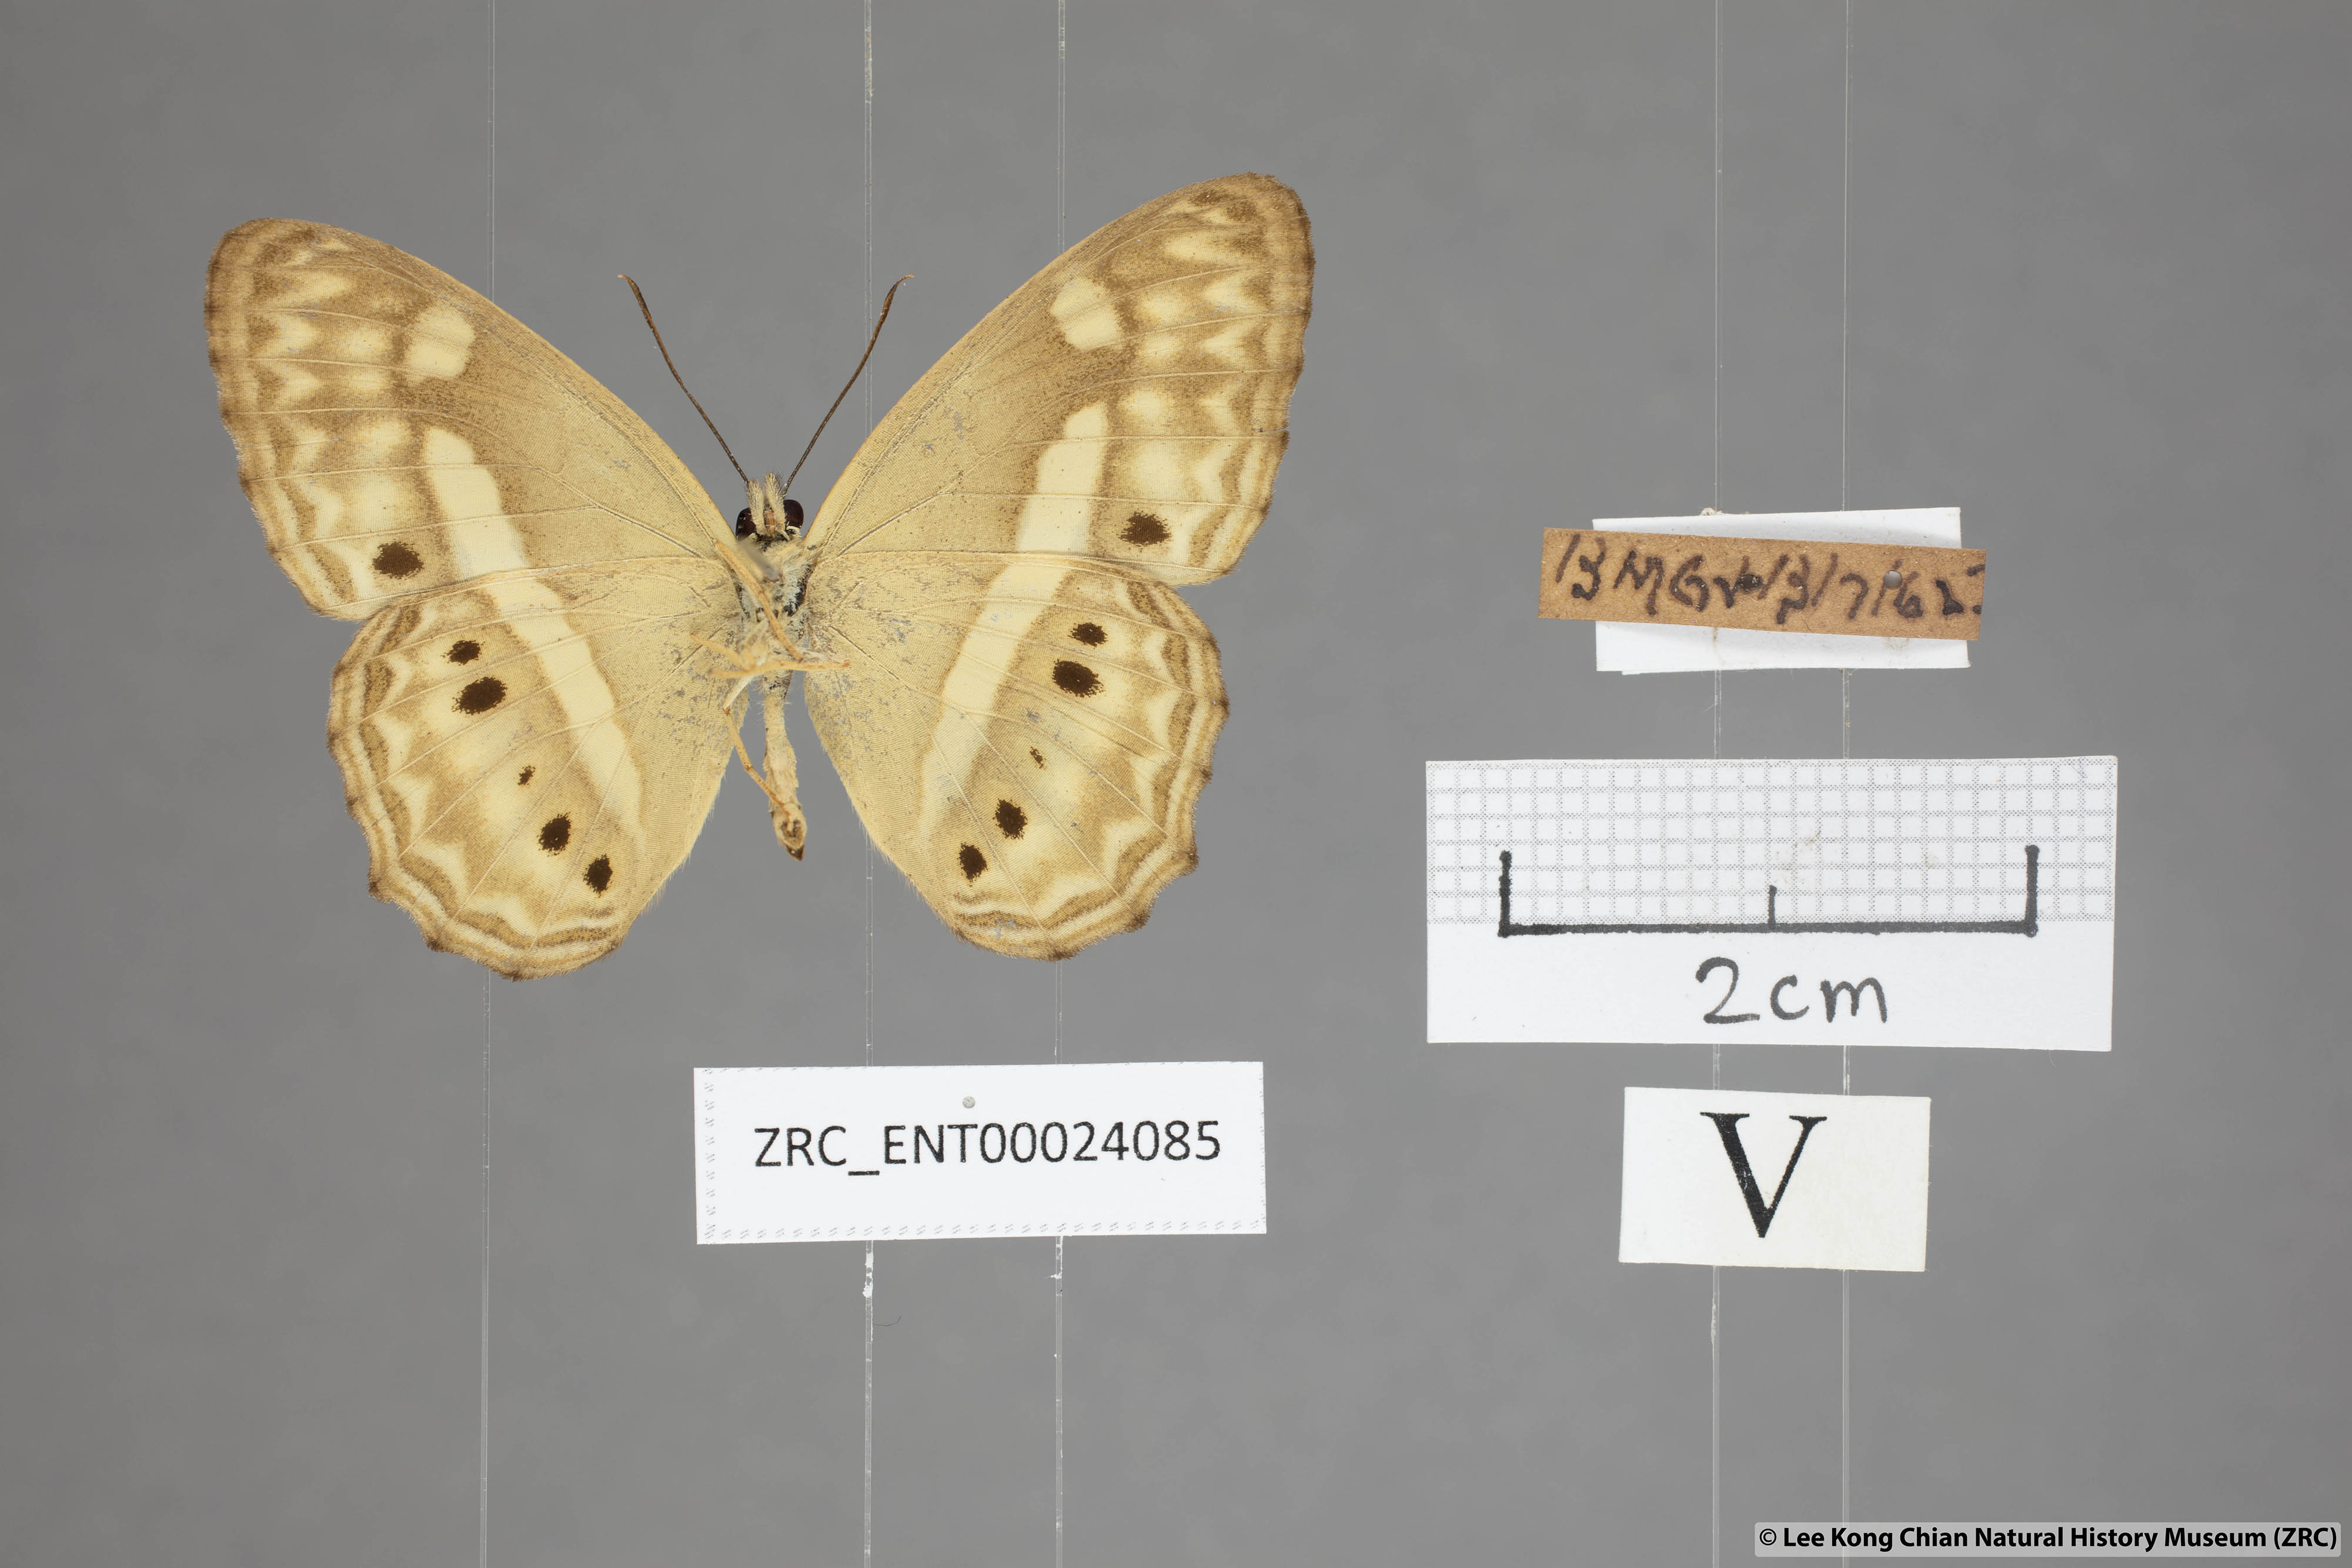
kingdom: Animalia
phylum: Arthropoda
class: Insecta
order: Lepidoptera
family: Nymphalidae
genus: Cirrochroa
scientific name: Cirrochroa fasciata
